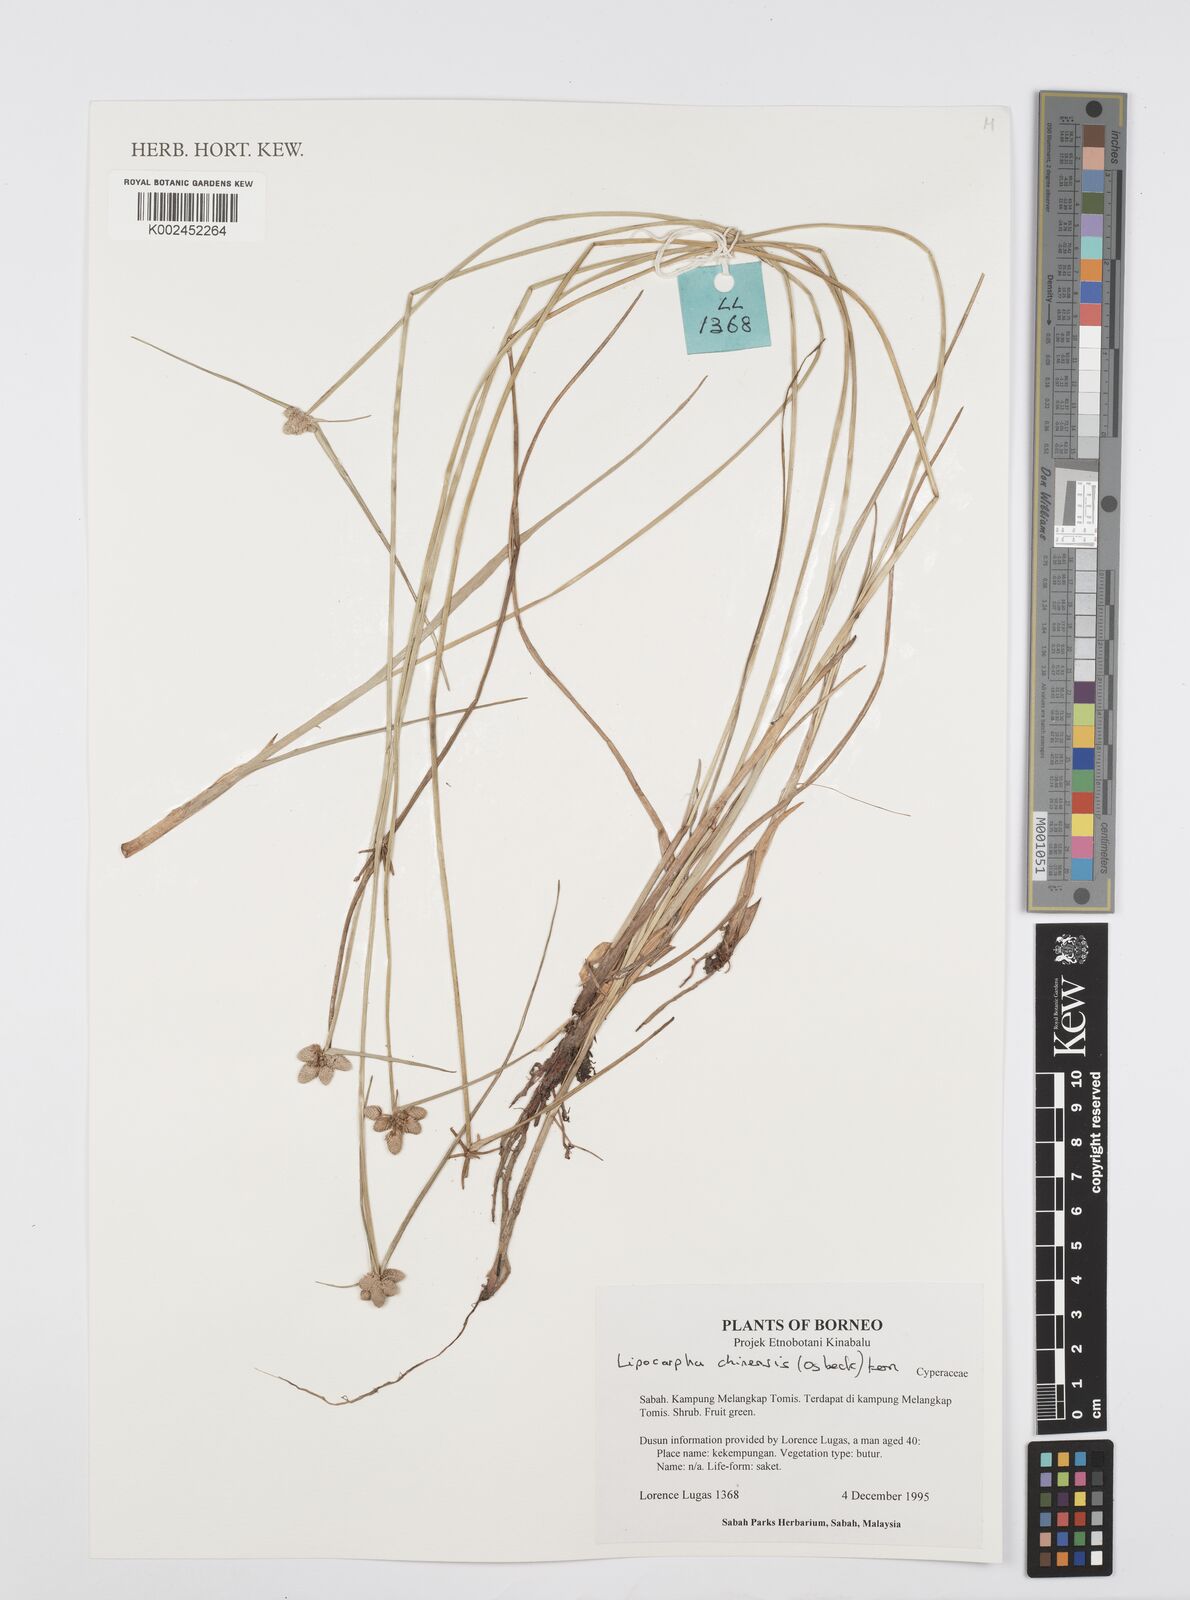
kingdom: Plantae
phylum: Tracheophyta
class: Liliopsida
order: Poales
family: Cyperaceae
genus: Cyperus
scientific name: Cyperus
